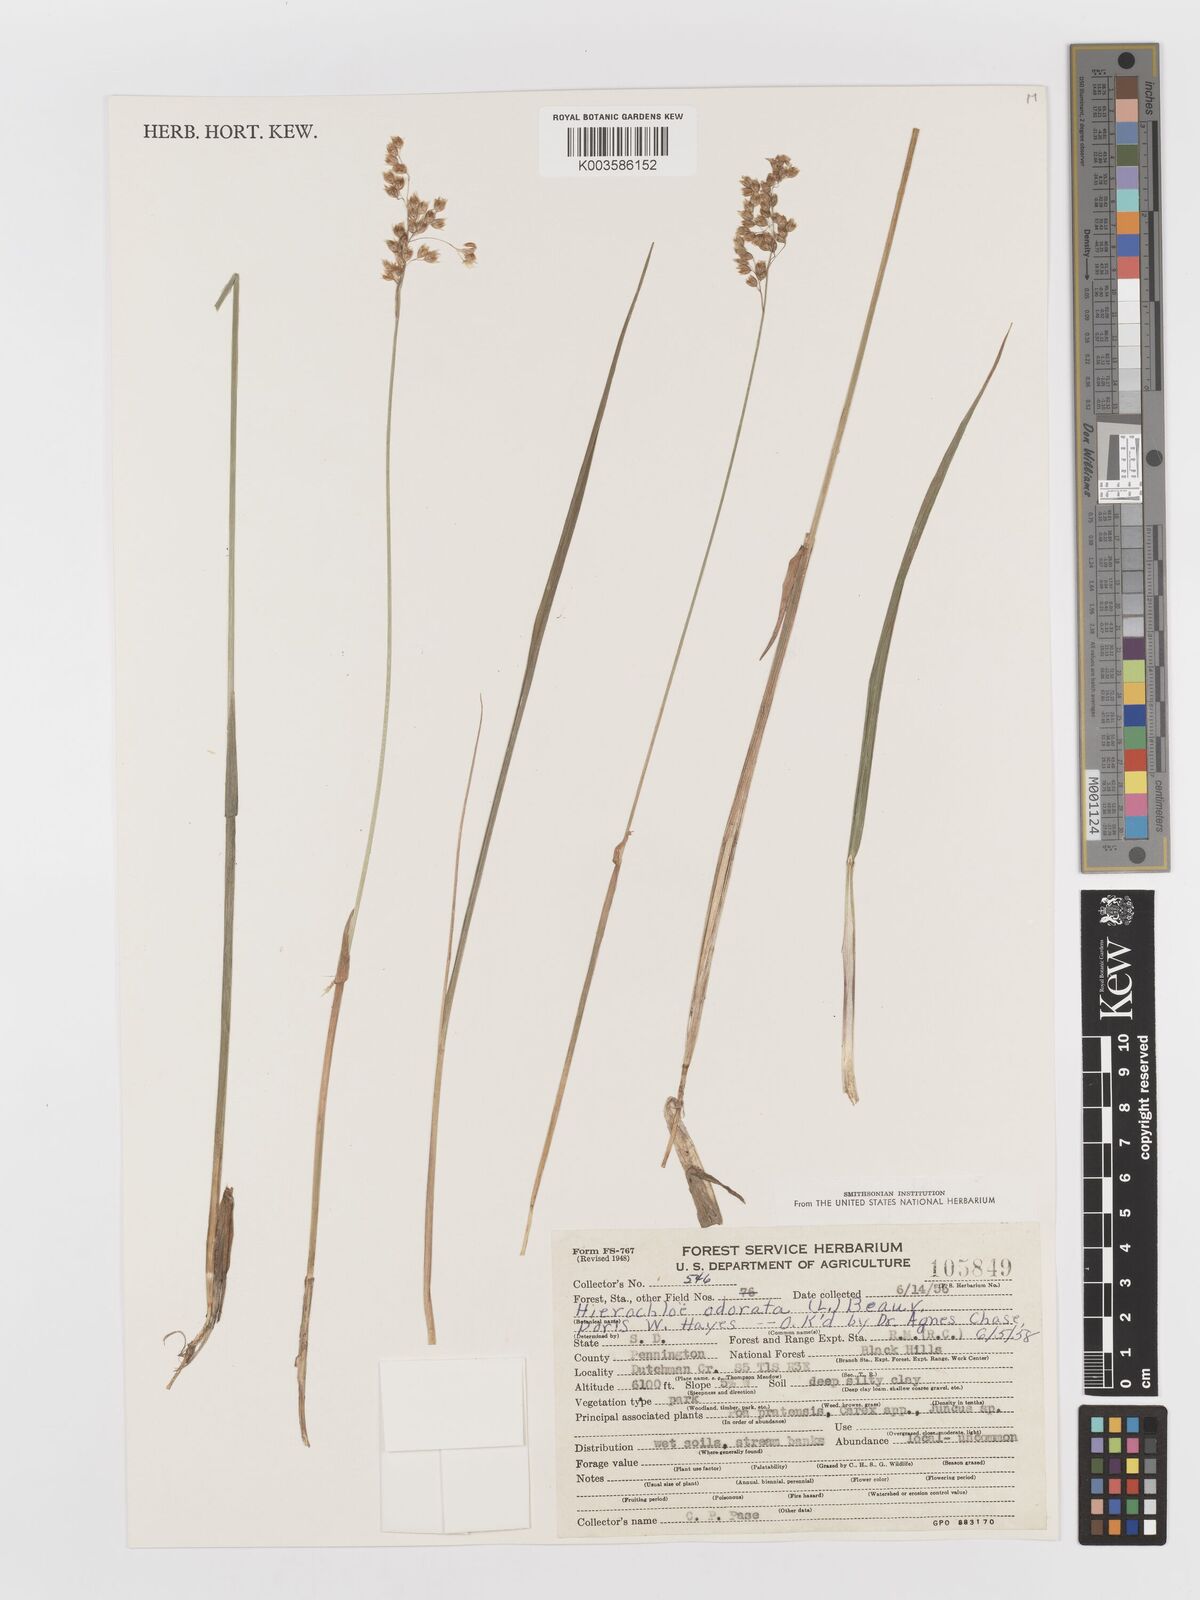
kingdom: Plantae
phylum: Tracheophyta
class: Liliopsida
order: Poales
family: Poaceae
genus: Anthoxanthum
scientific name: Anthoxanthum nitens
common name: Holy grass
